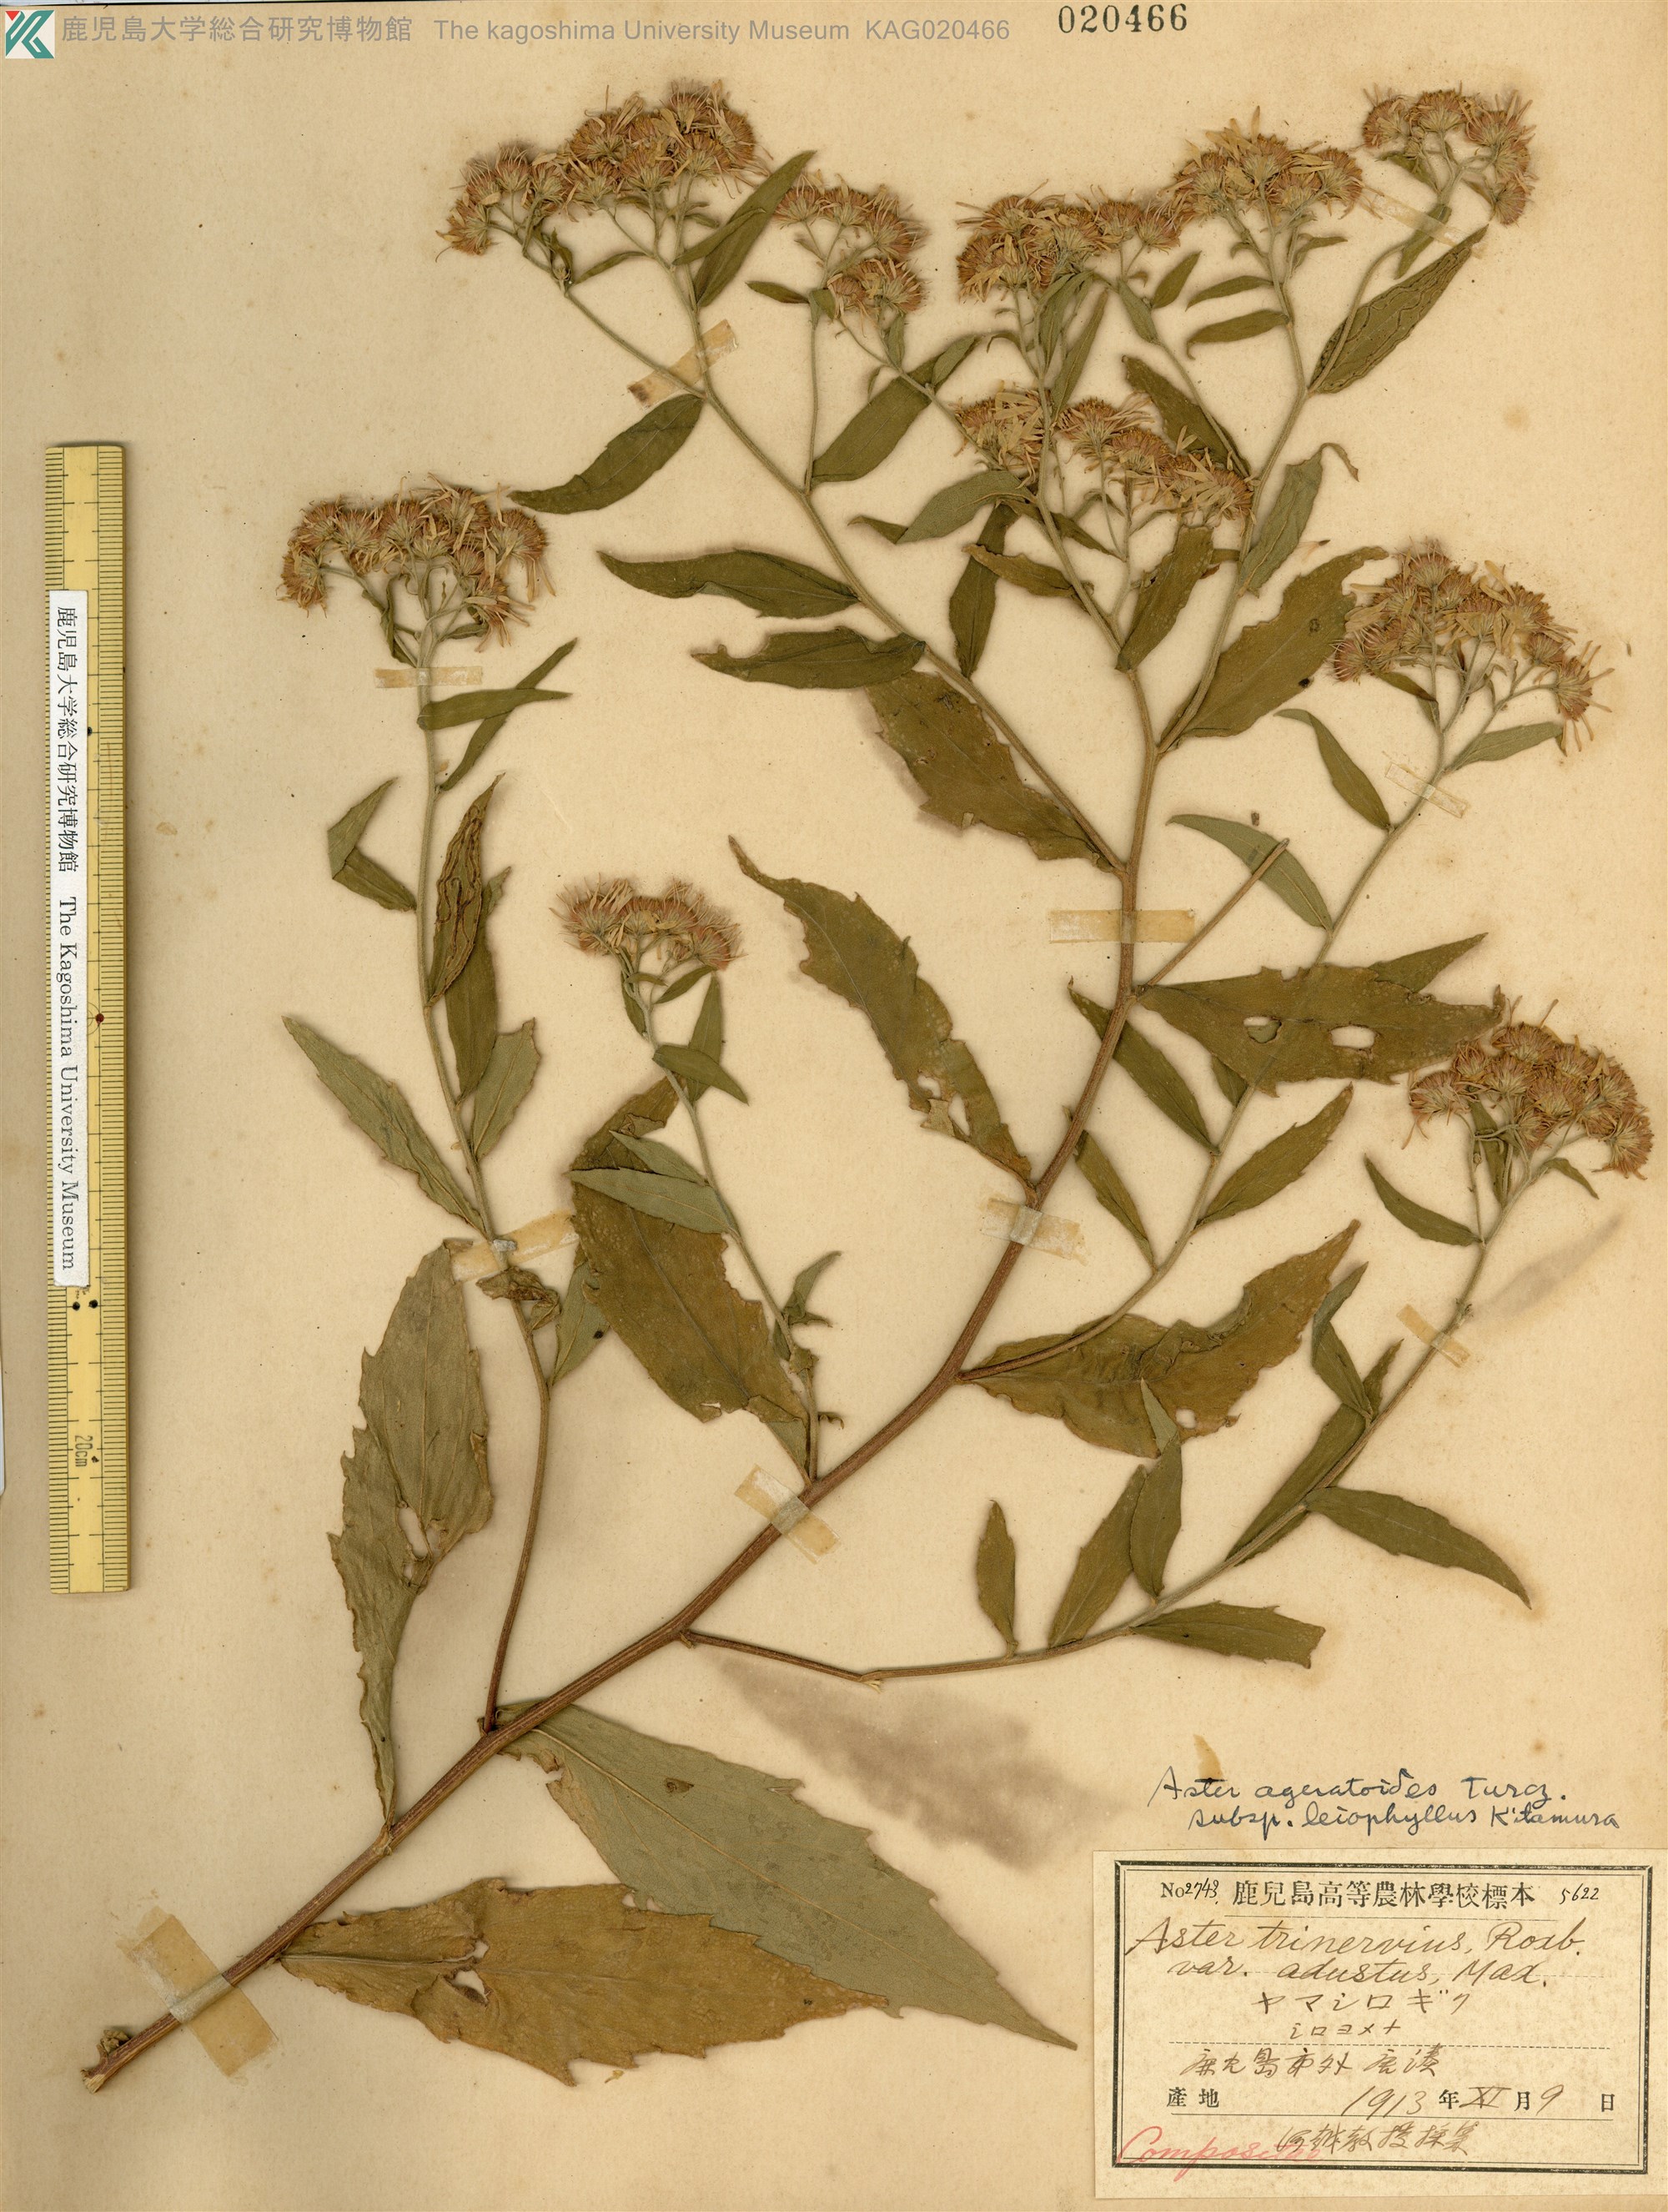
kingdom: Plantae
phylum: Tracheophyta
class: Magnoliopsida
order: Asterales
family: Asteraceae
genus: Aster
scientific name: Aster satsumensis
